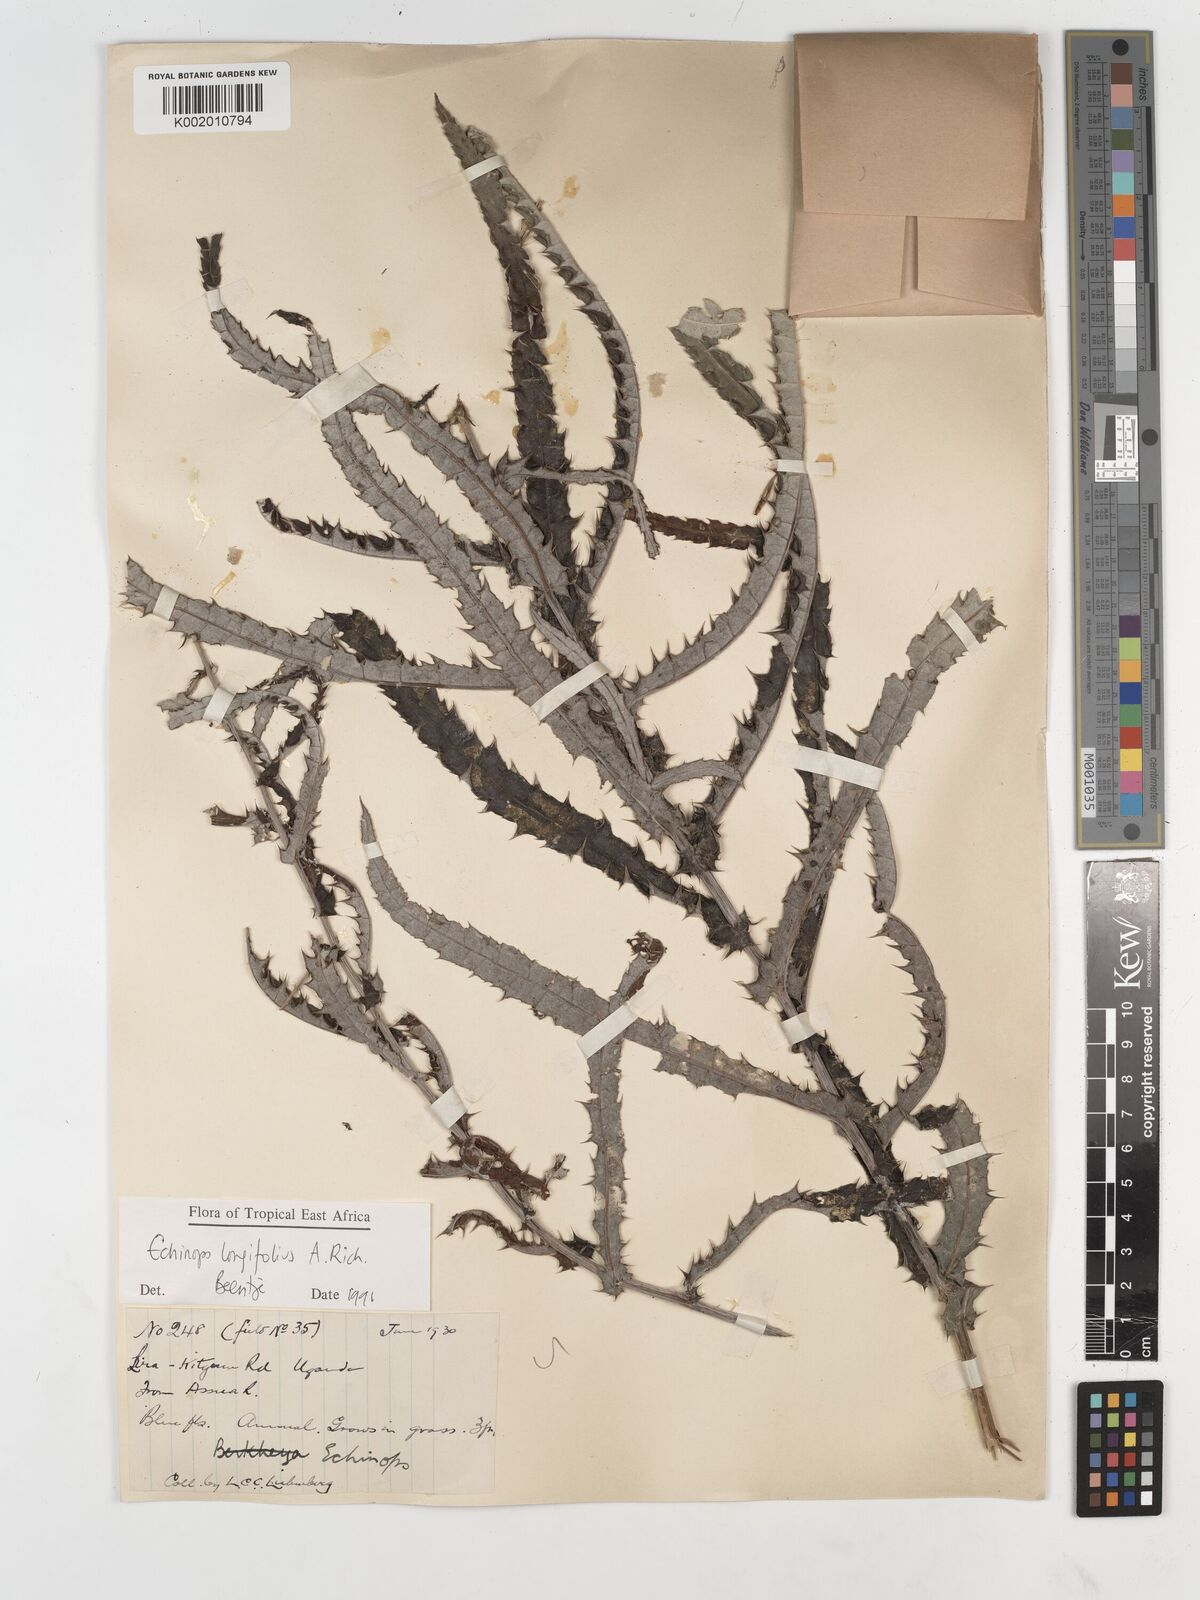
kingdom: Plantae
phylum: Tracheophyta
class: Magnoliopsida
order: Asterales
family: Asteraceae
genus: Echinops
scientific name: Echinops longifolius
